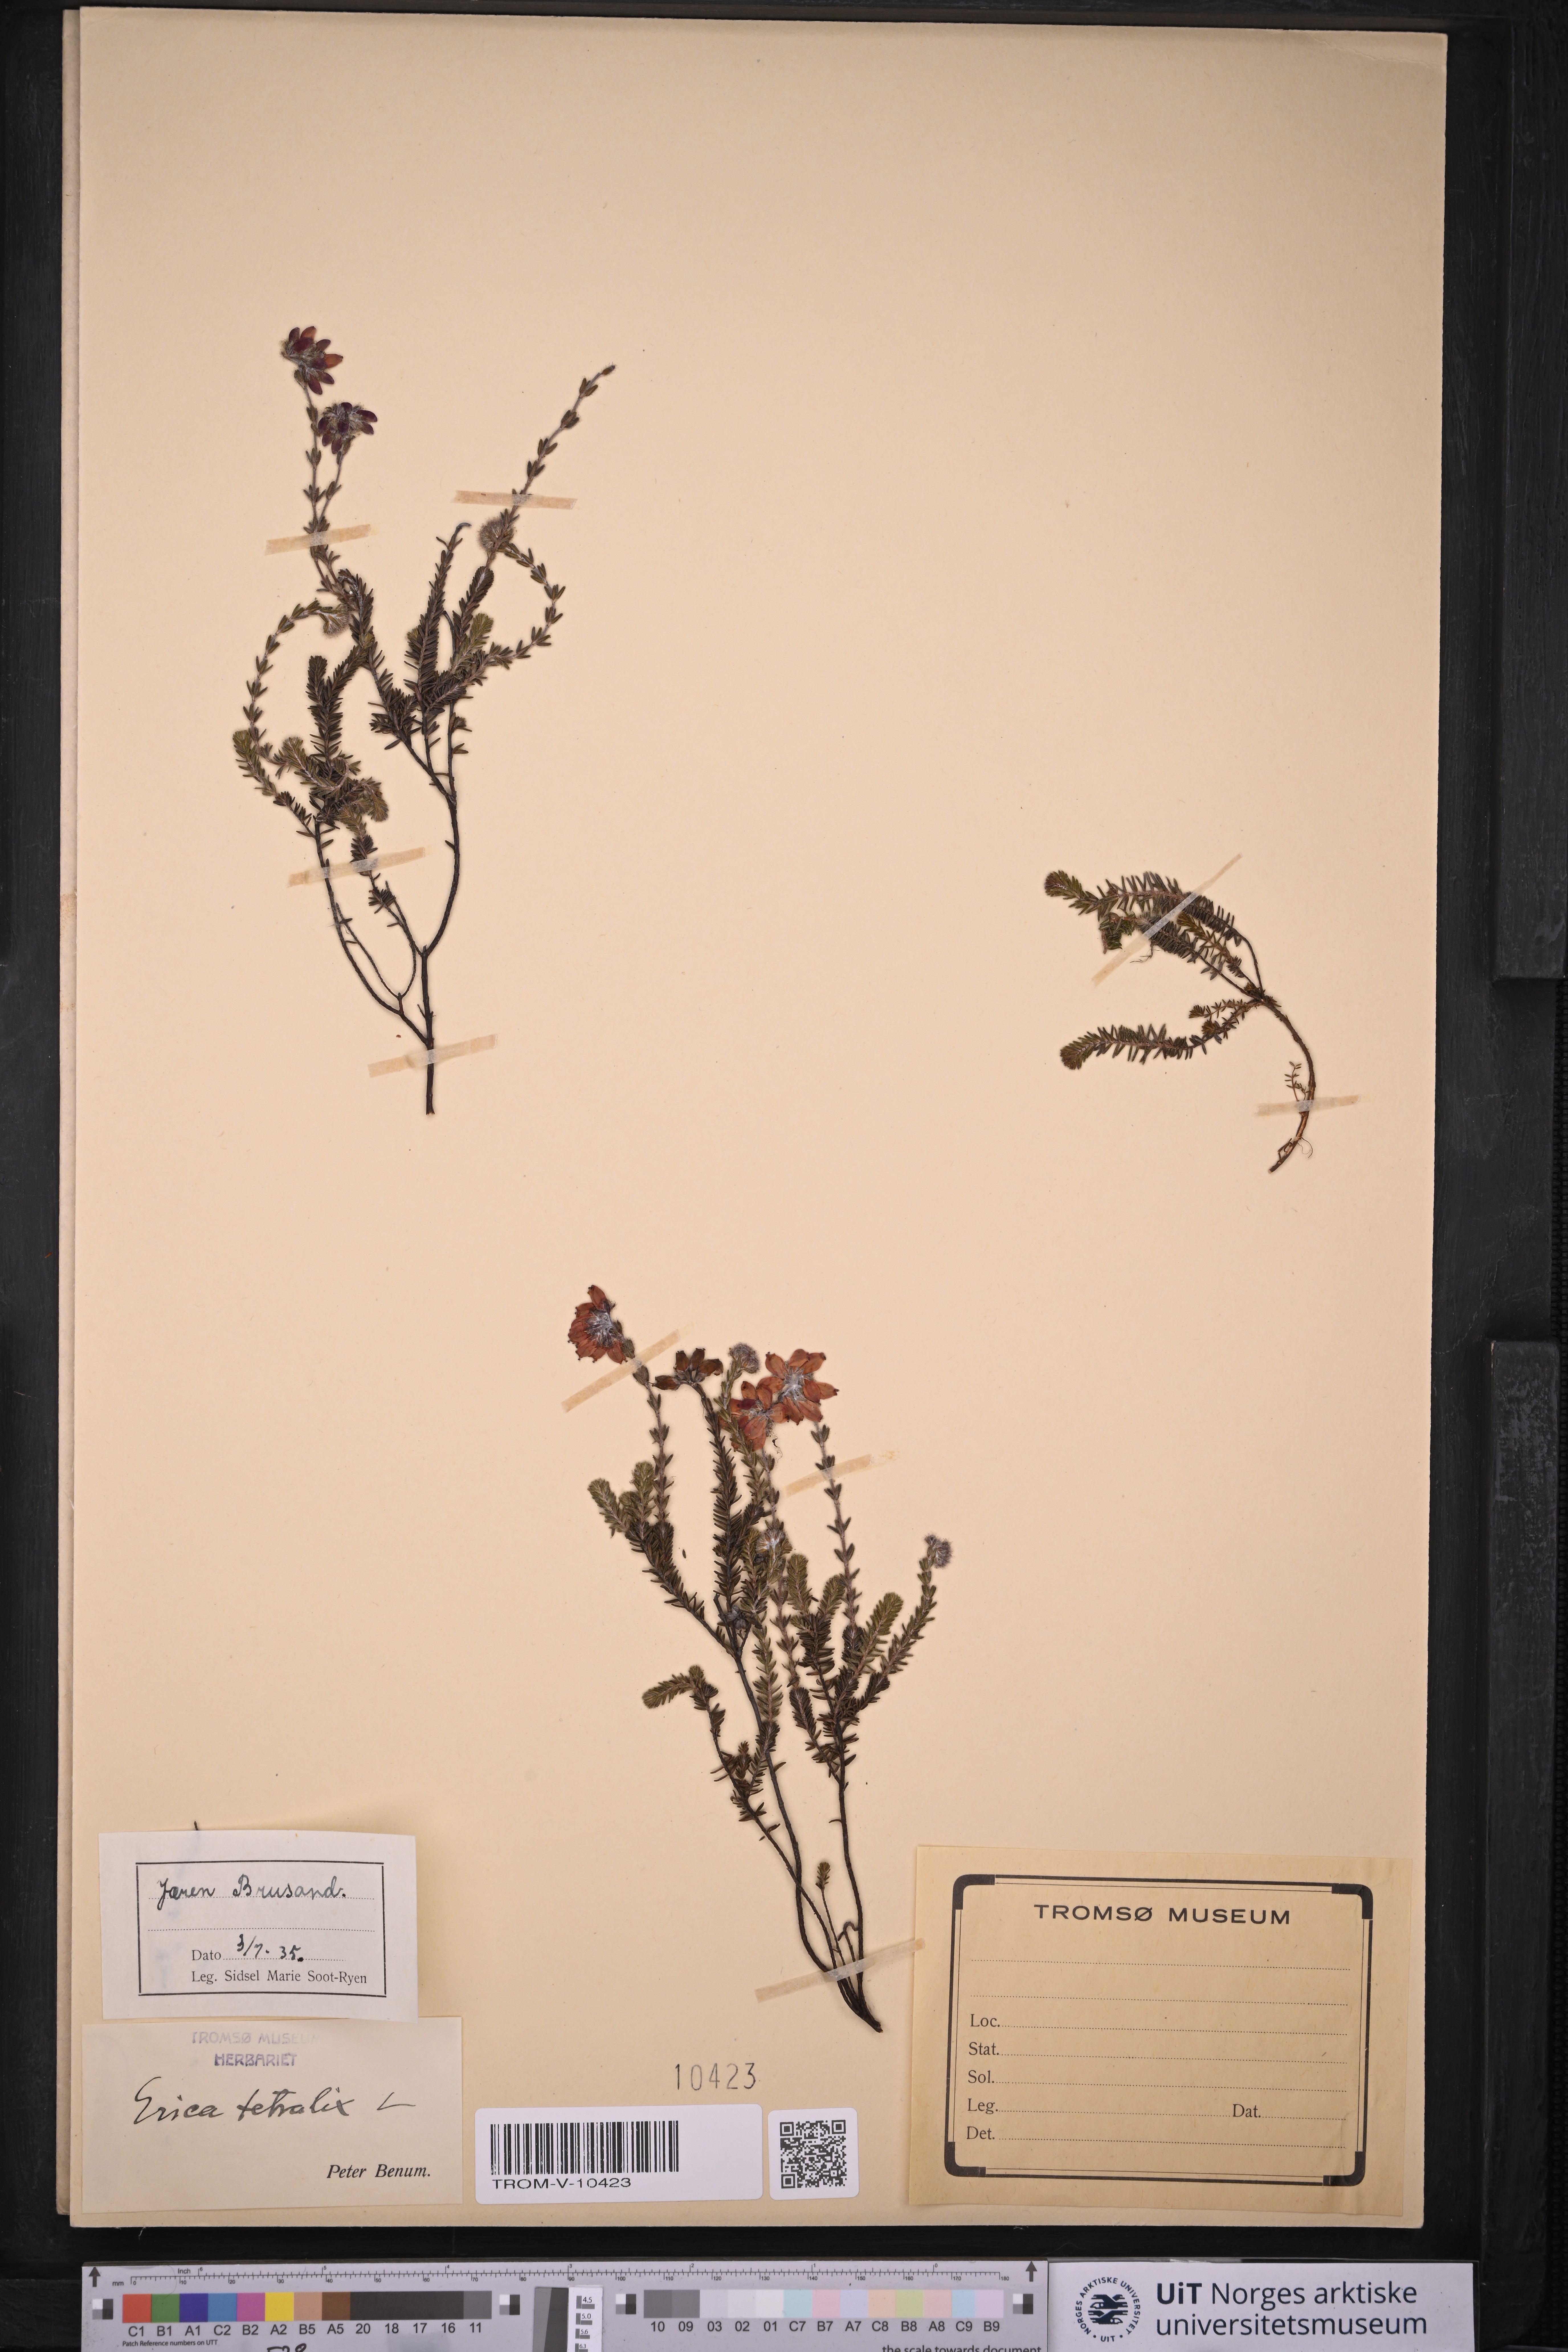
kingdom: Plantae
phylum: Tracheophyta
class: Magnoliopsida
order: Ericales
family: Ericaceae
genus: Erica
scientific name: Erica tetralix
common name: Cross-leaved heath
